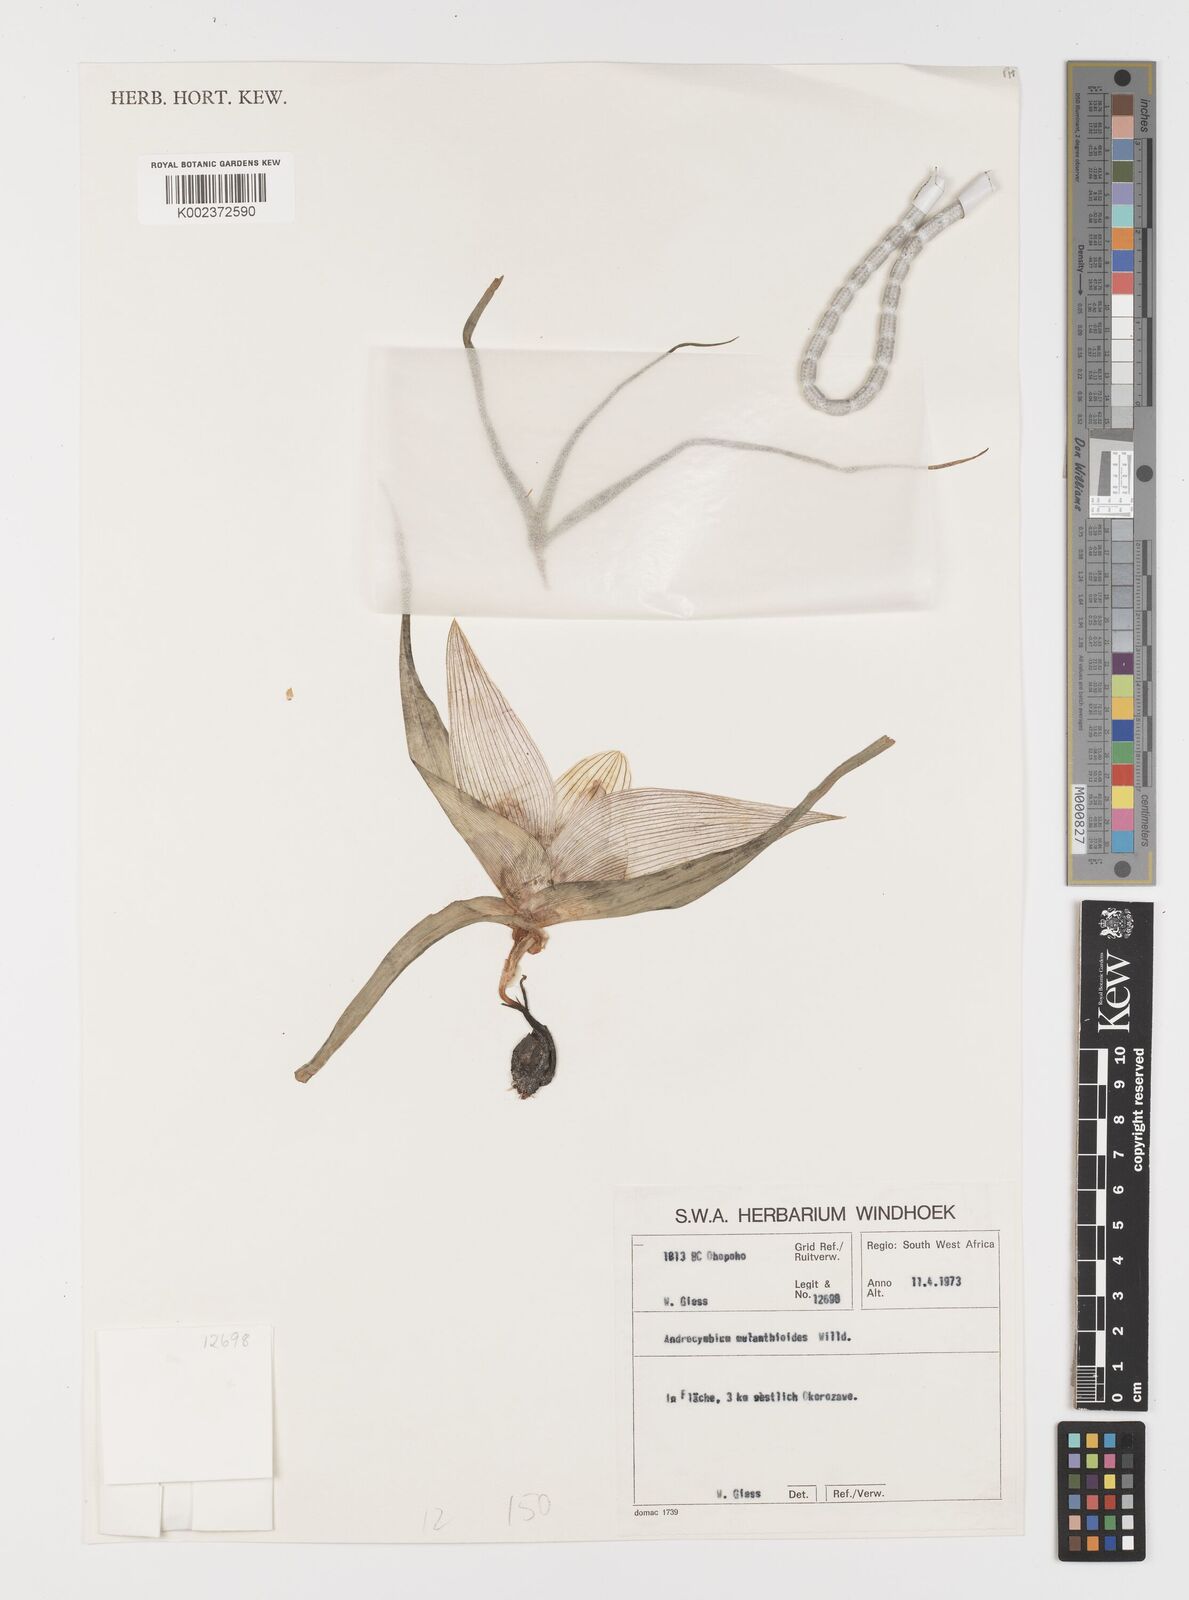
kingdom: Plantae
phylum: Tracheophyta
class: Liliopsida
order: Liliales
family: Colchicaceae
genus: Colchicum
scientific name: Colchicum melanthioides
